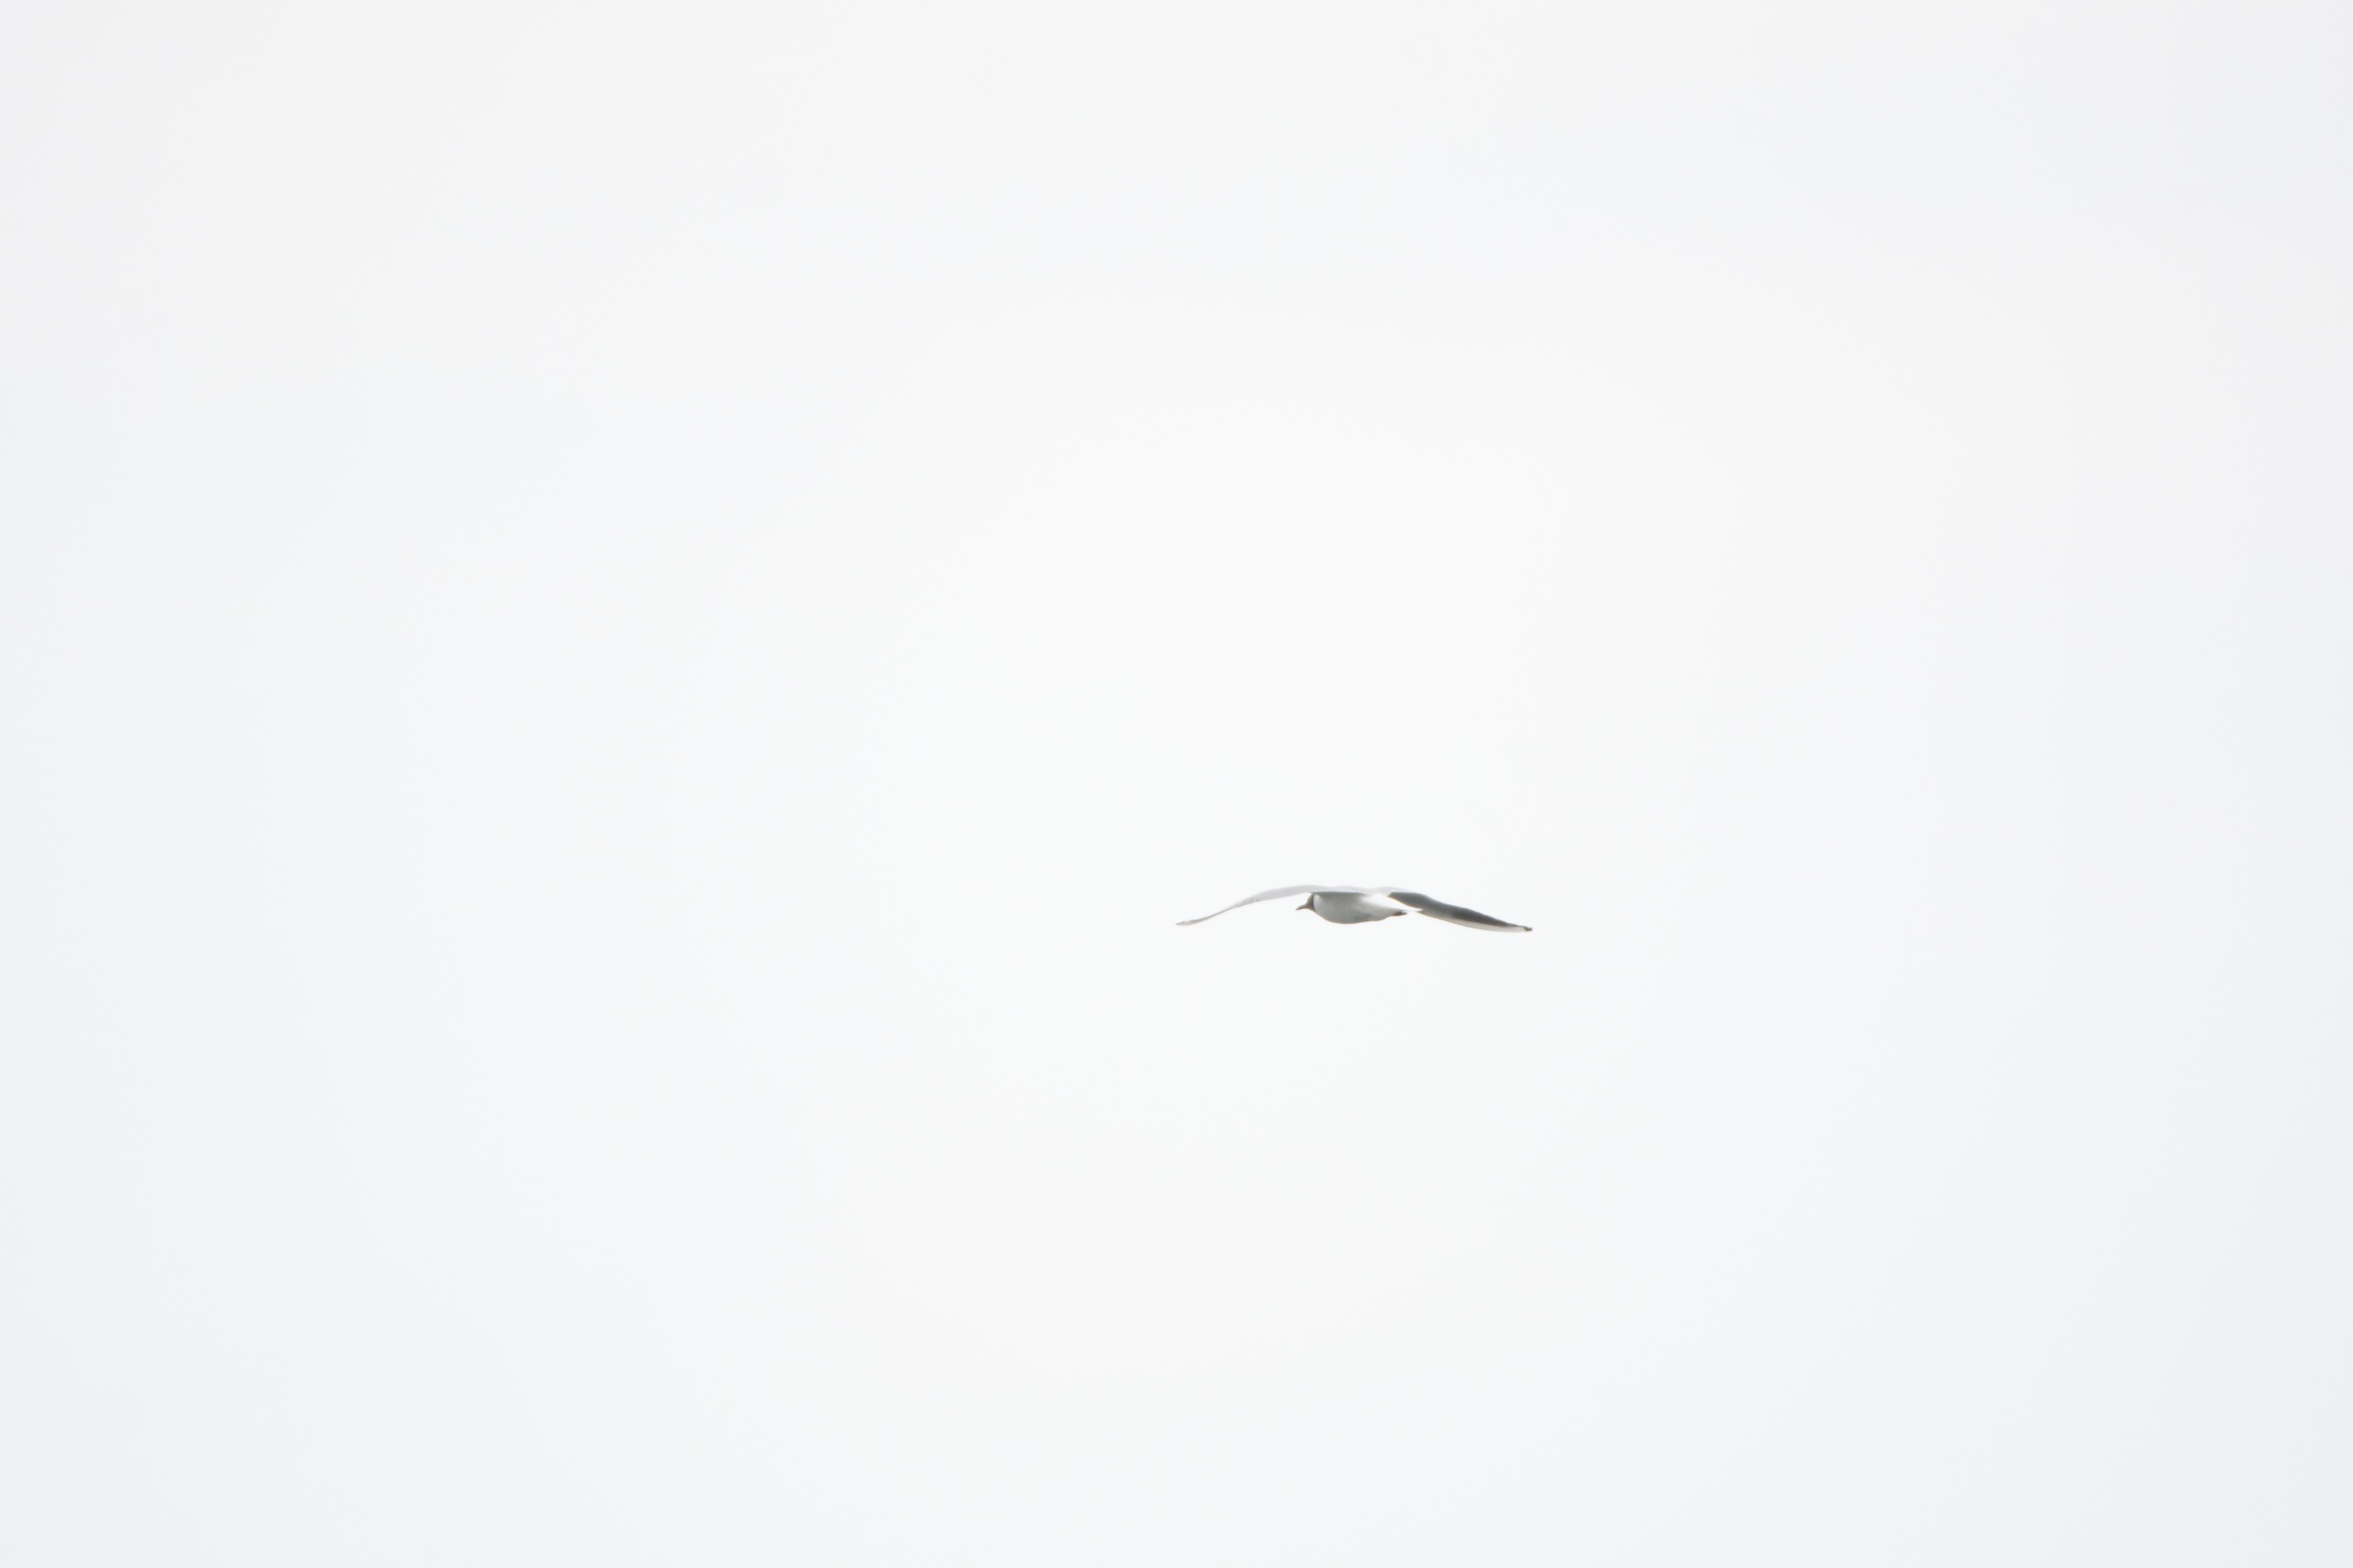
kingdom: Animalia
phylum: Chordata
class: Aves
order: Charadriiformes
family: Laridae
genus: Chroicocephalus
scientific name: Chroicocephalus ridibundus
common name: Hættemåge
